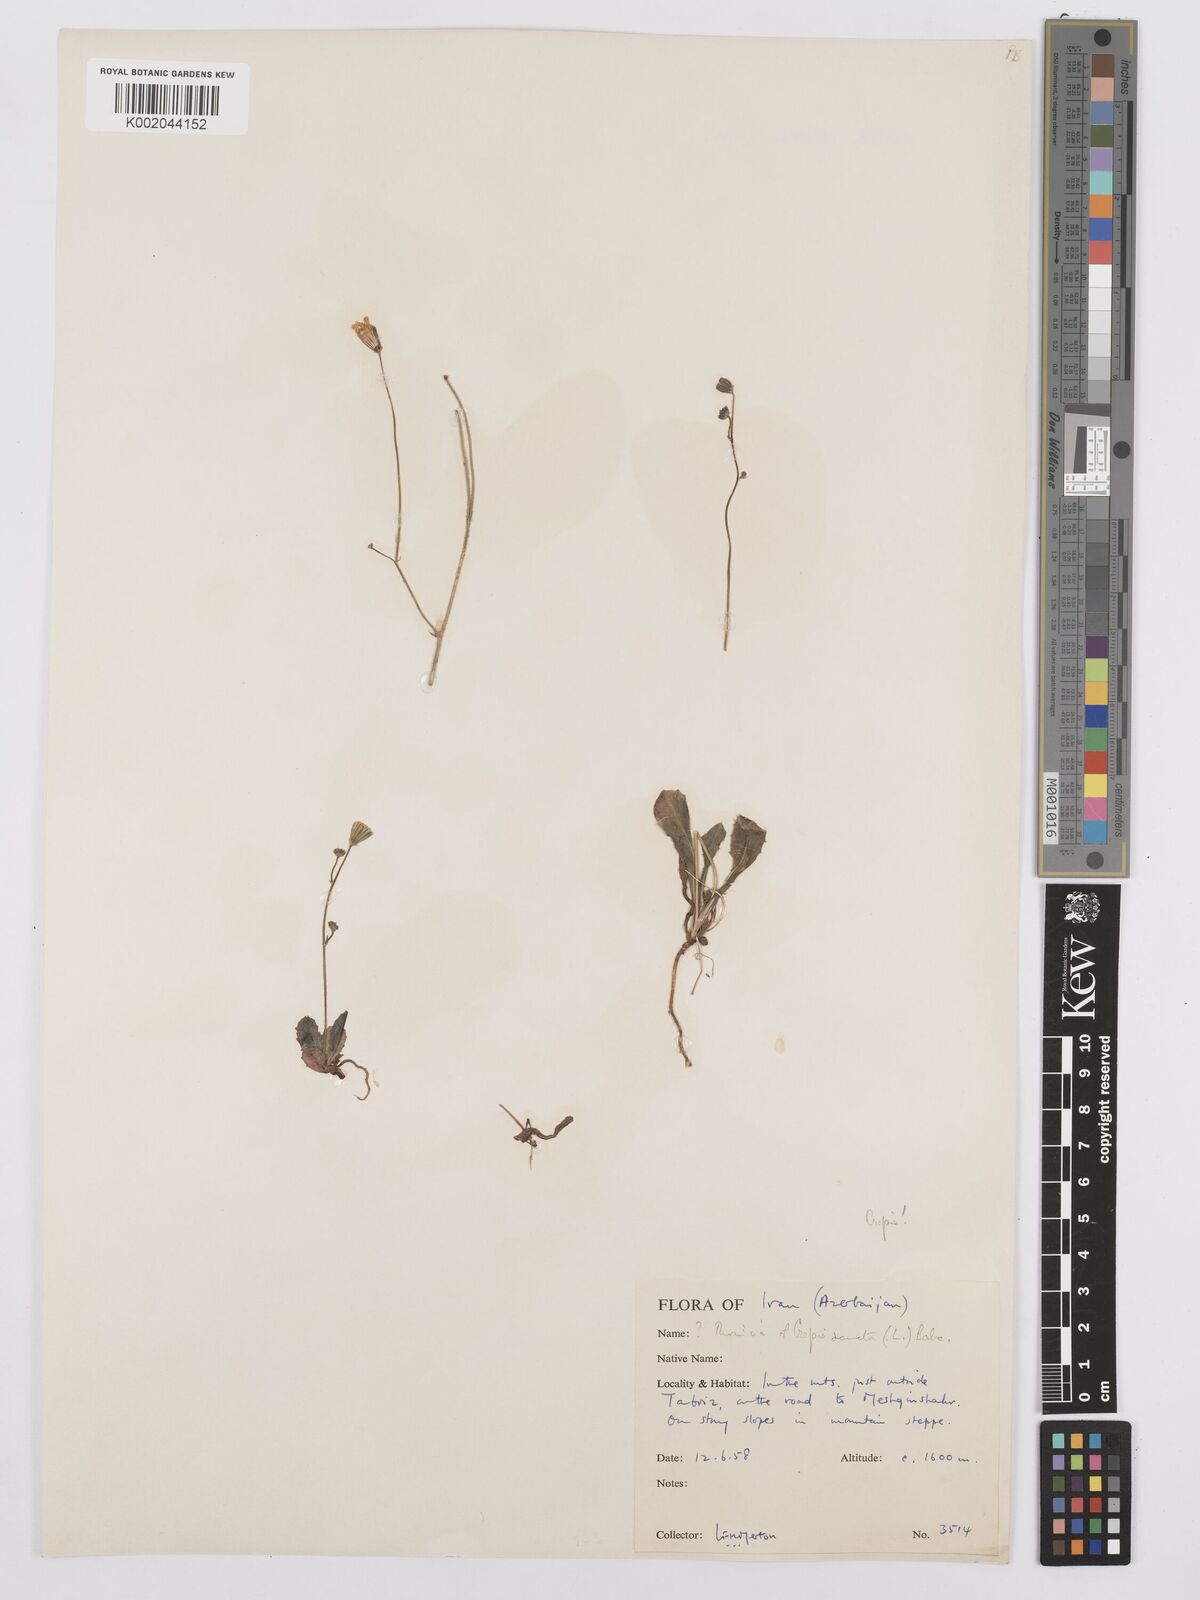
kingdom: Plantae
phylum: Tracheophyta
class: Magnoliopsida
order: Asterales
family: Asteraceae
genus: Picris
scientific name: Picris
